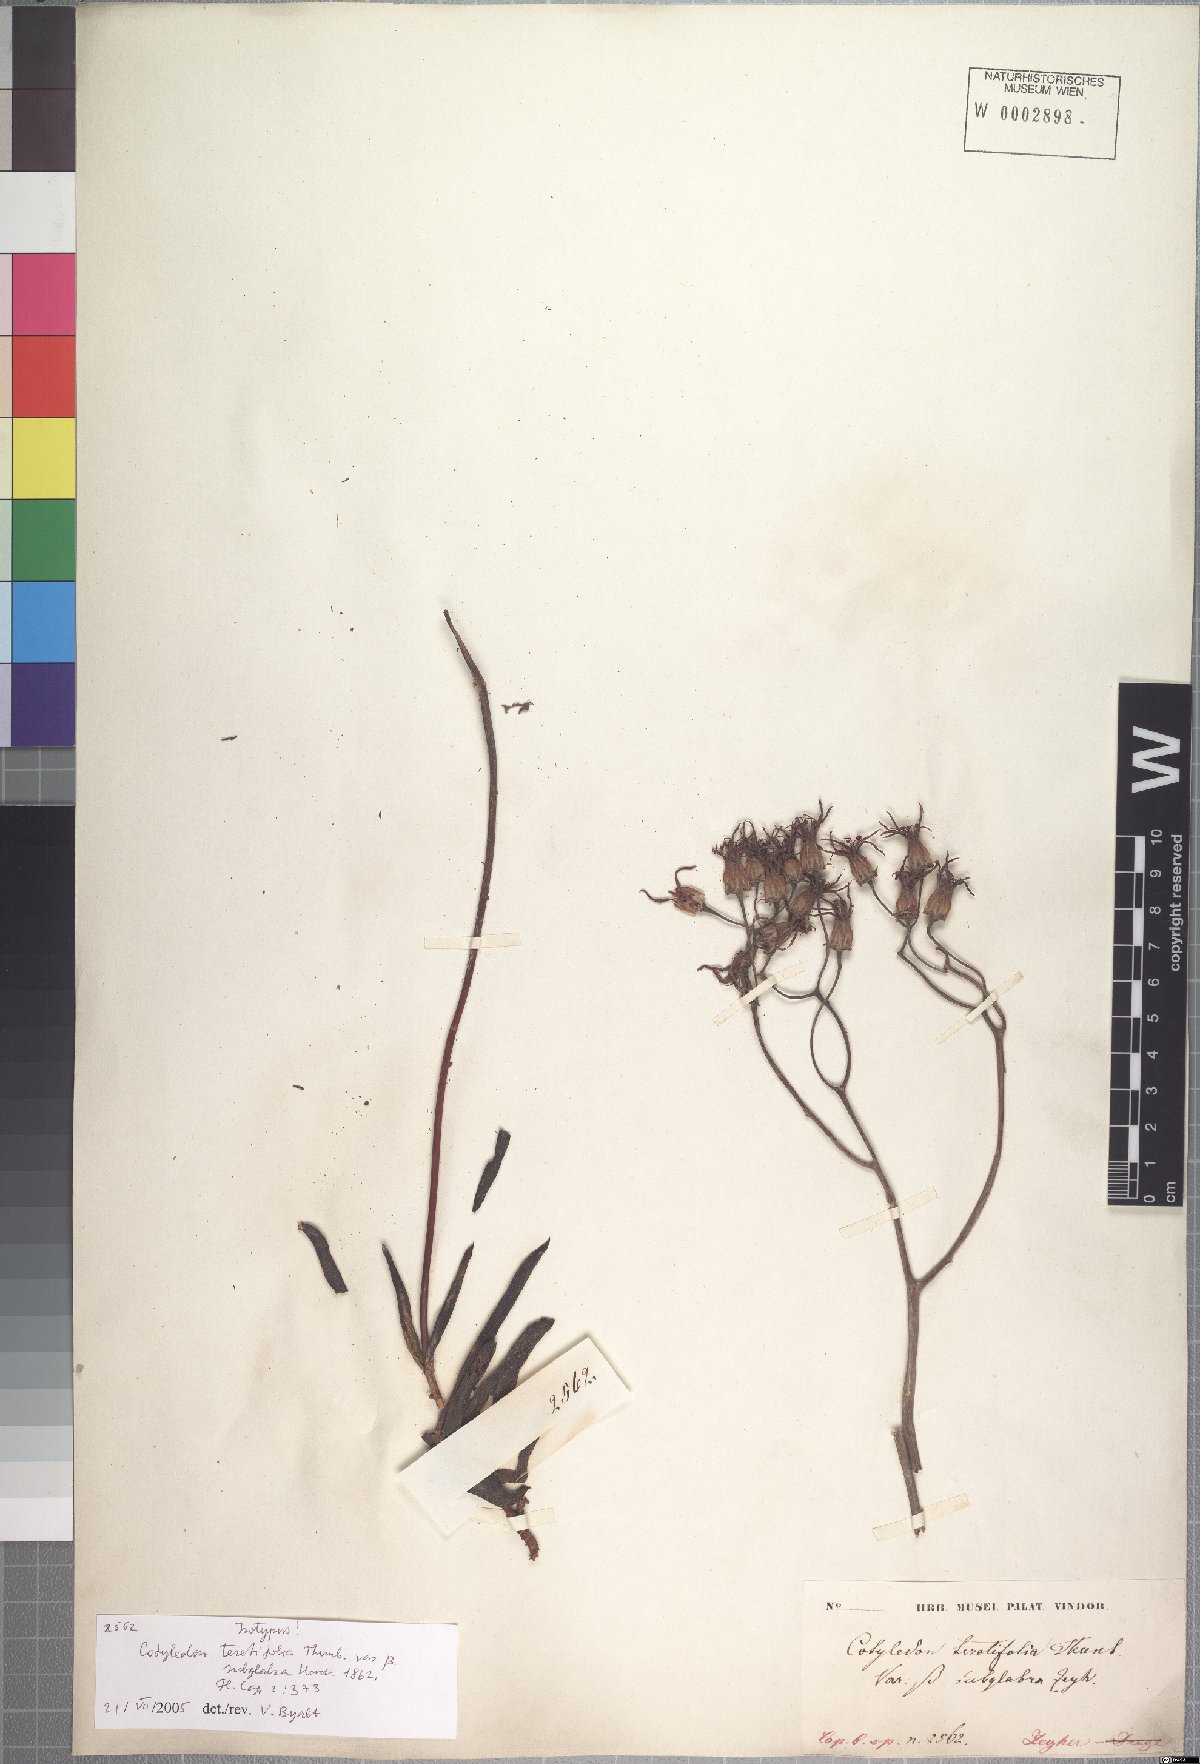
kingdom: Plantae
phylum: Tracheophyta
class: Magnoliopsida
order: Saxifragales
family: Crassulaceae
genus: Cotyledon
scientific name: Cotyledon campanulata
